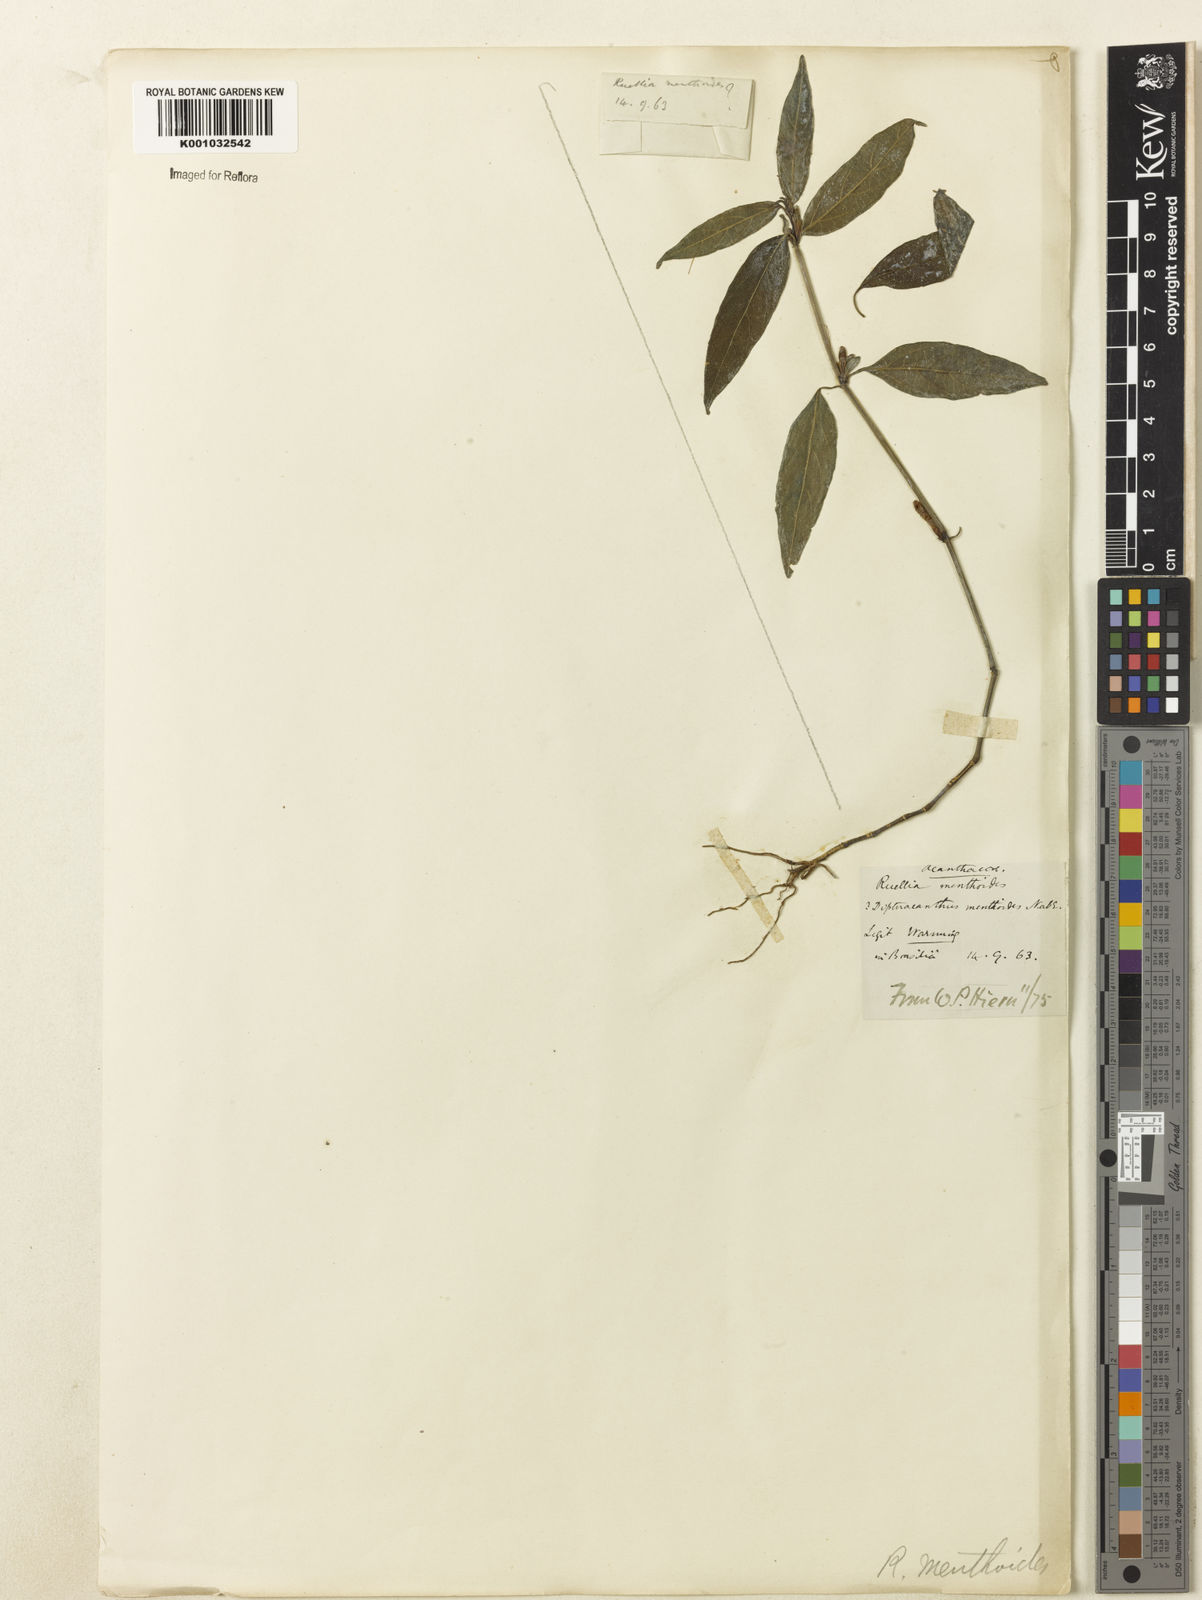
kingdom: Plantae
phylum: Tracheophyta
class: Magnoliopsida
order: Lamiales
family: Acanthaceae
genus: Ruellia
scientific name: Ruellia menthoides
